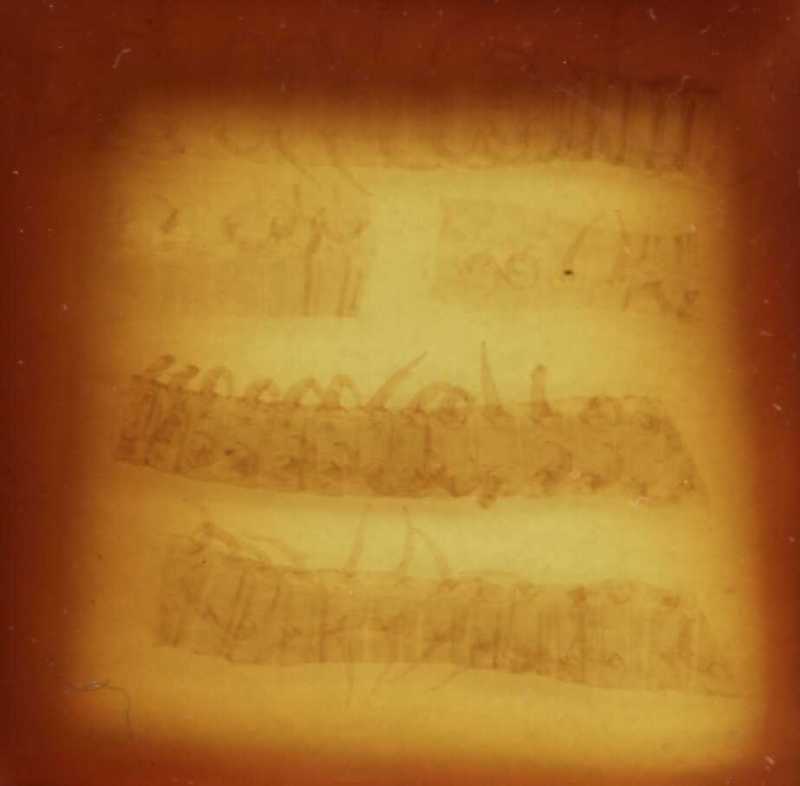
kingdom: Animalia
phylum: Arthropoda
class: Chilopoda
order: Geophilomorpha
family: Geophilidae
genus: Taschkentia
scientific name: Taschkentia parthorum
